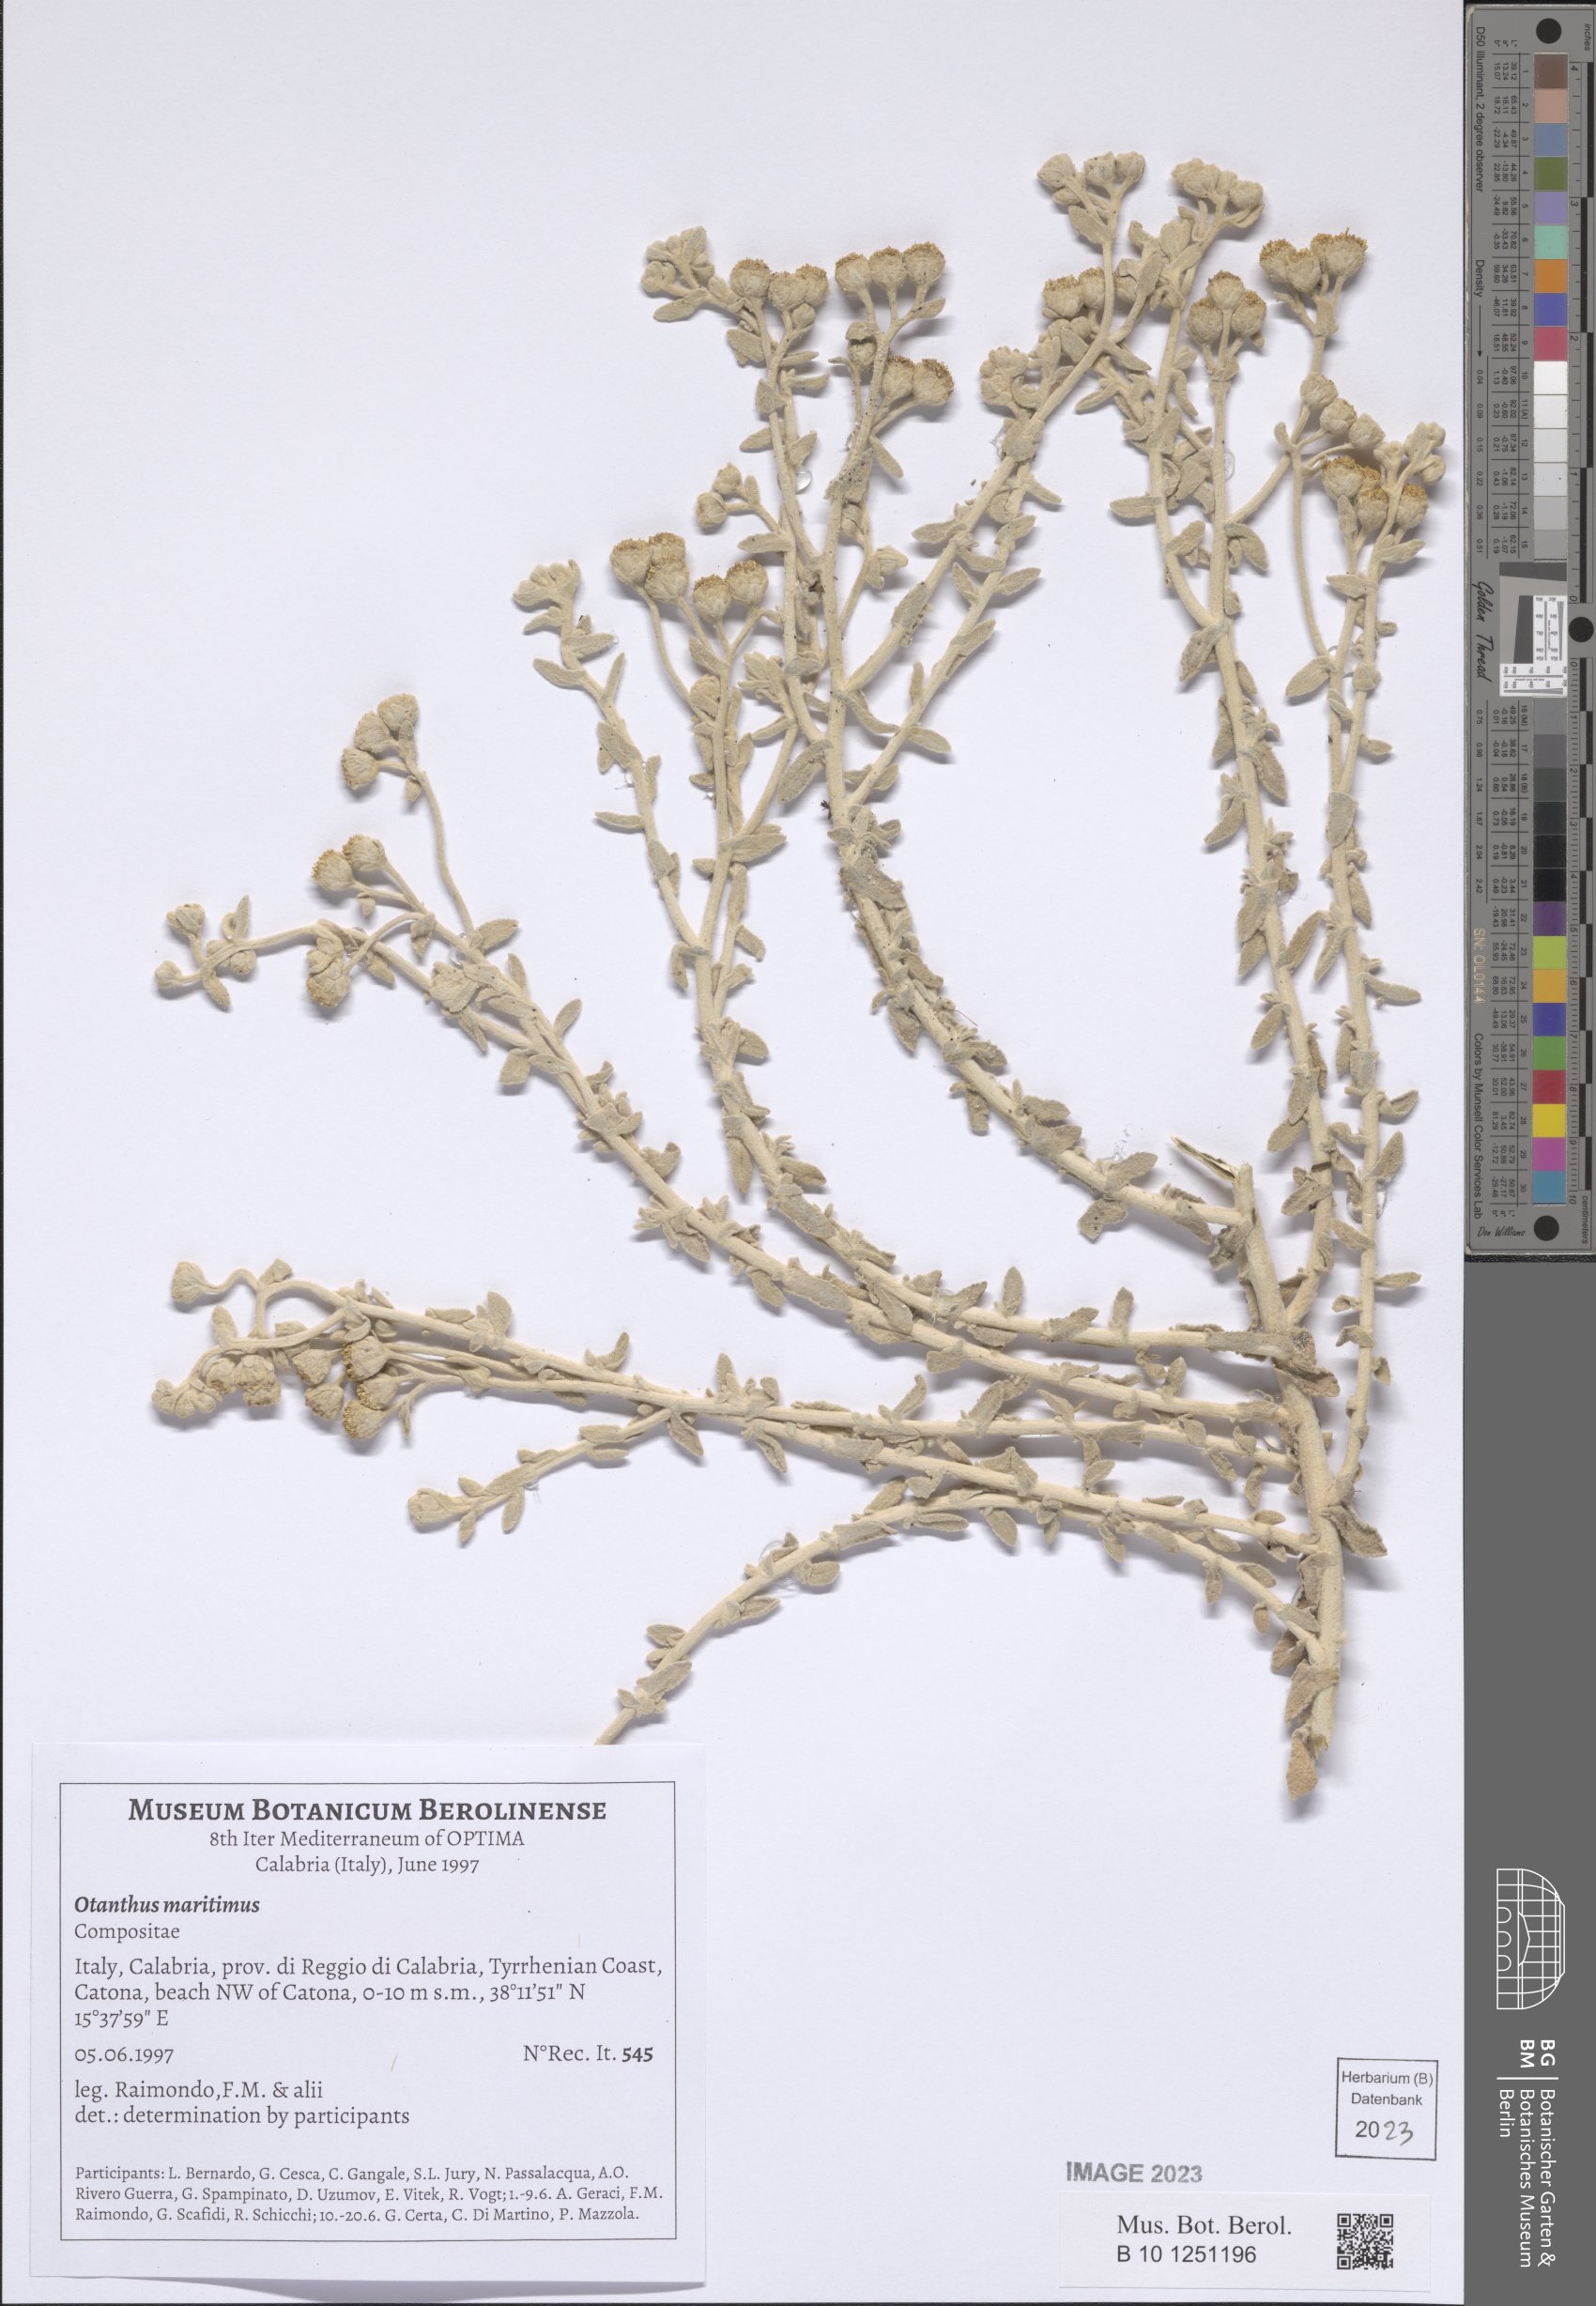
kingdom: Plantae
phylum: Tracheophyta
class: Magnoliopsida
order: Asterales
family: Asteraceae
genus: Achillea
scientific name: Achillea maritima
